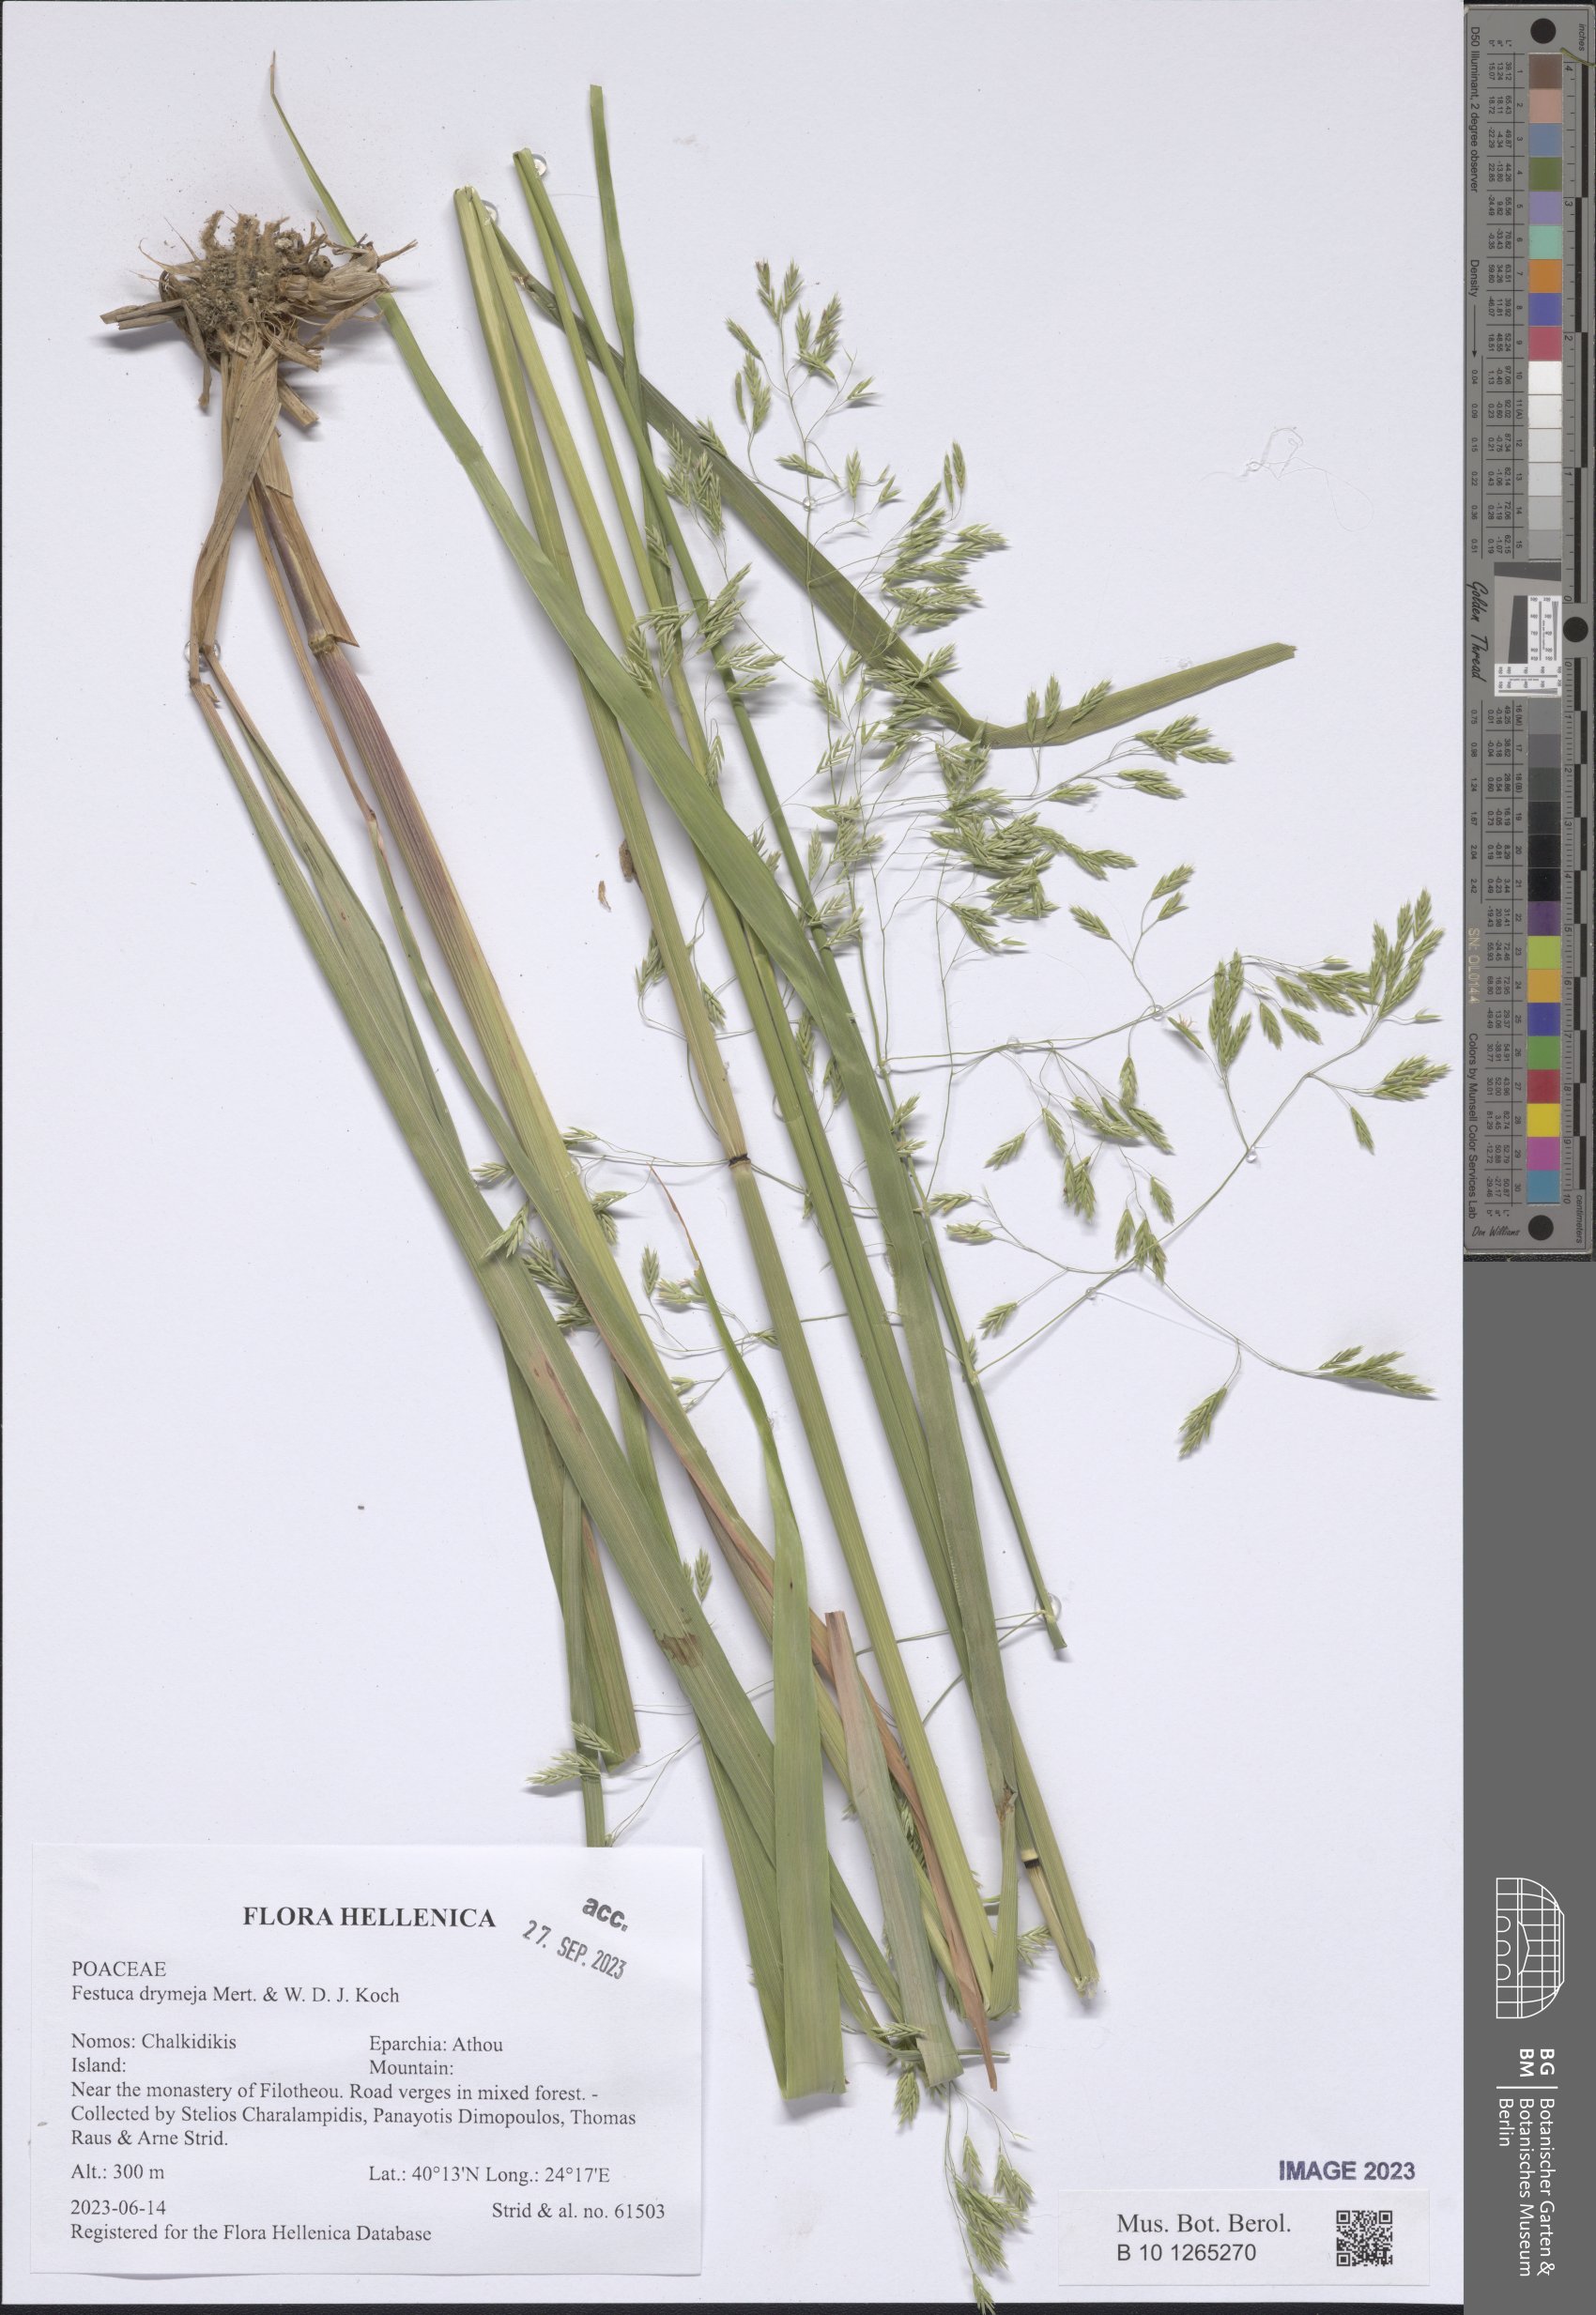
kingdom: Plantae
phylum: Tracheophyta
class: Liliopsida
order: Poales
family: Poaceae
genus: Festuca
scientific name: Festuca drymeja
